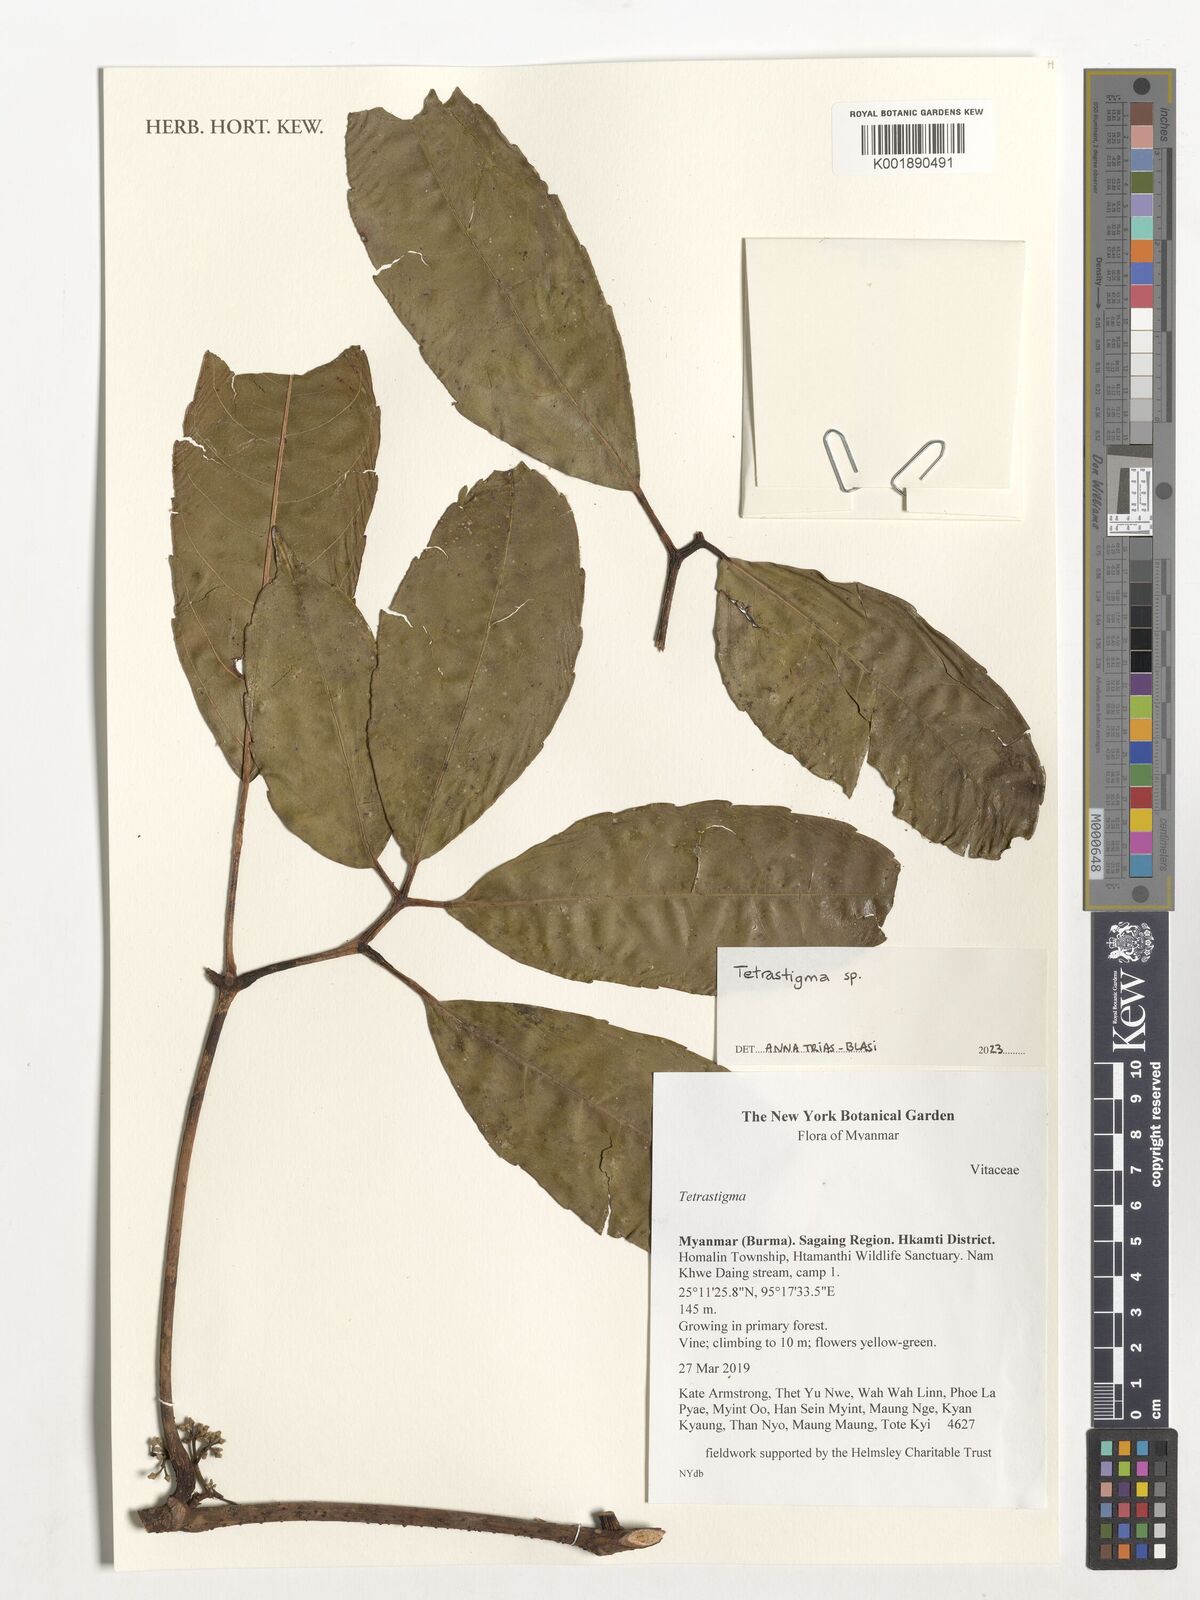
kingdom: Plantae
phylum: Tracheophyta
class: Magnoliopsida
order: Vitales
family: Vitaceae
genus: Tetrastigma
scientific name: Tetrastigma
